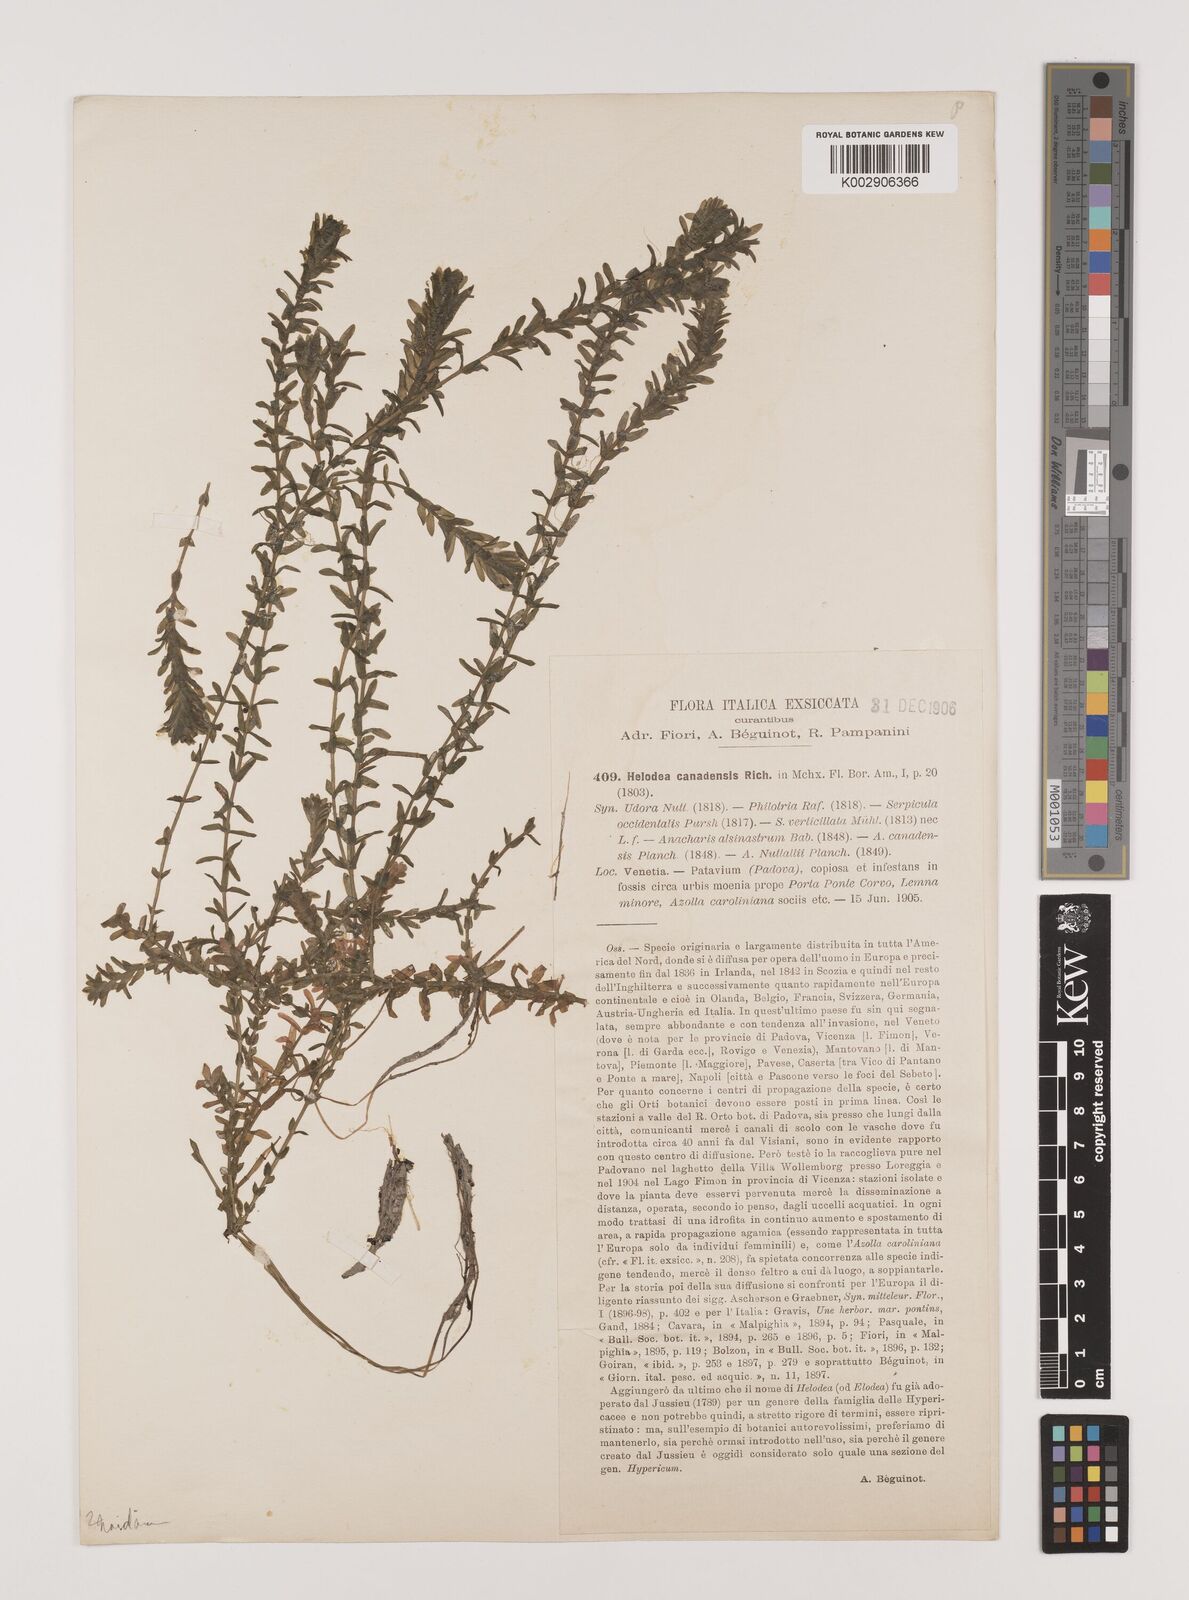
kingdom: Plantae
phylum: Tracheophyta
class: Liliopsida
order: Alismatales
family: Hydrocharitaceae
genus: Elodea
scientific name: Elodea canadensis
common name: Canadian waterweed
